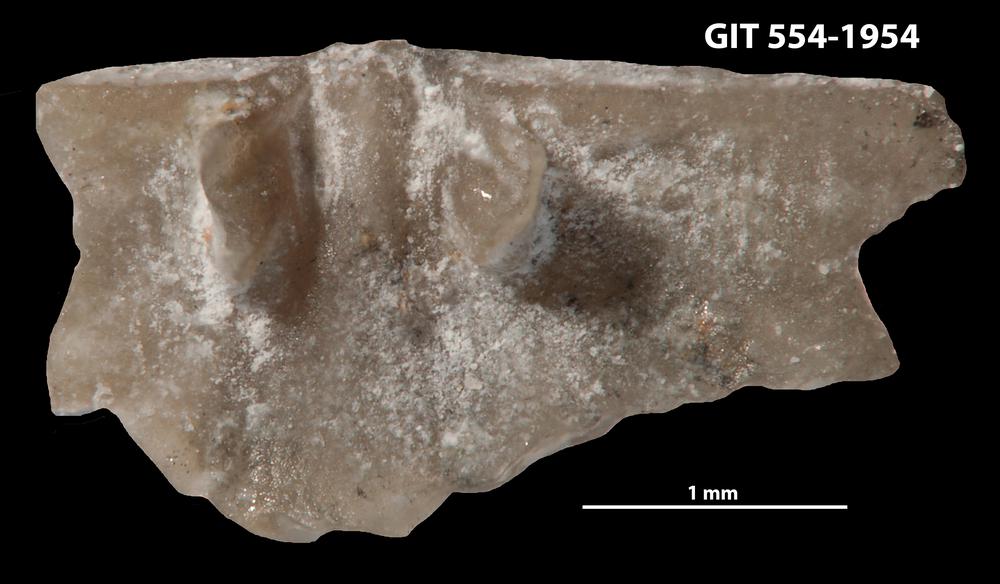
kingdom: Animalia
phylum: Brachiopoda
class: Rhynchonellata
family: Wangyuiidae
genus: Wangyuia
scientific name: Wangyuia
